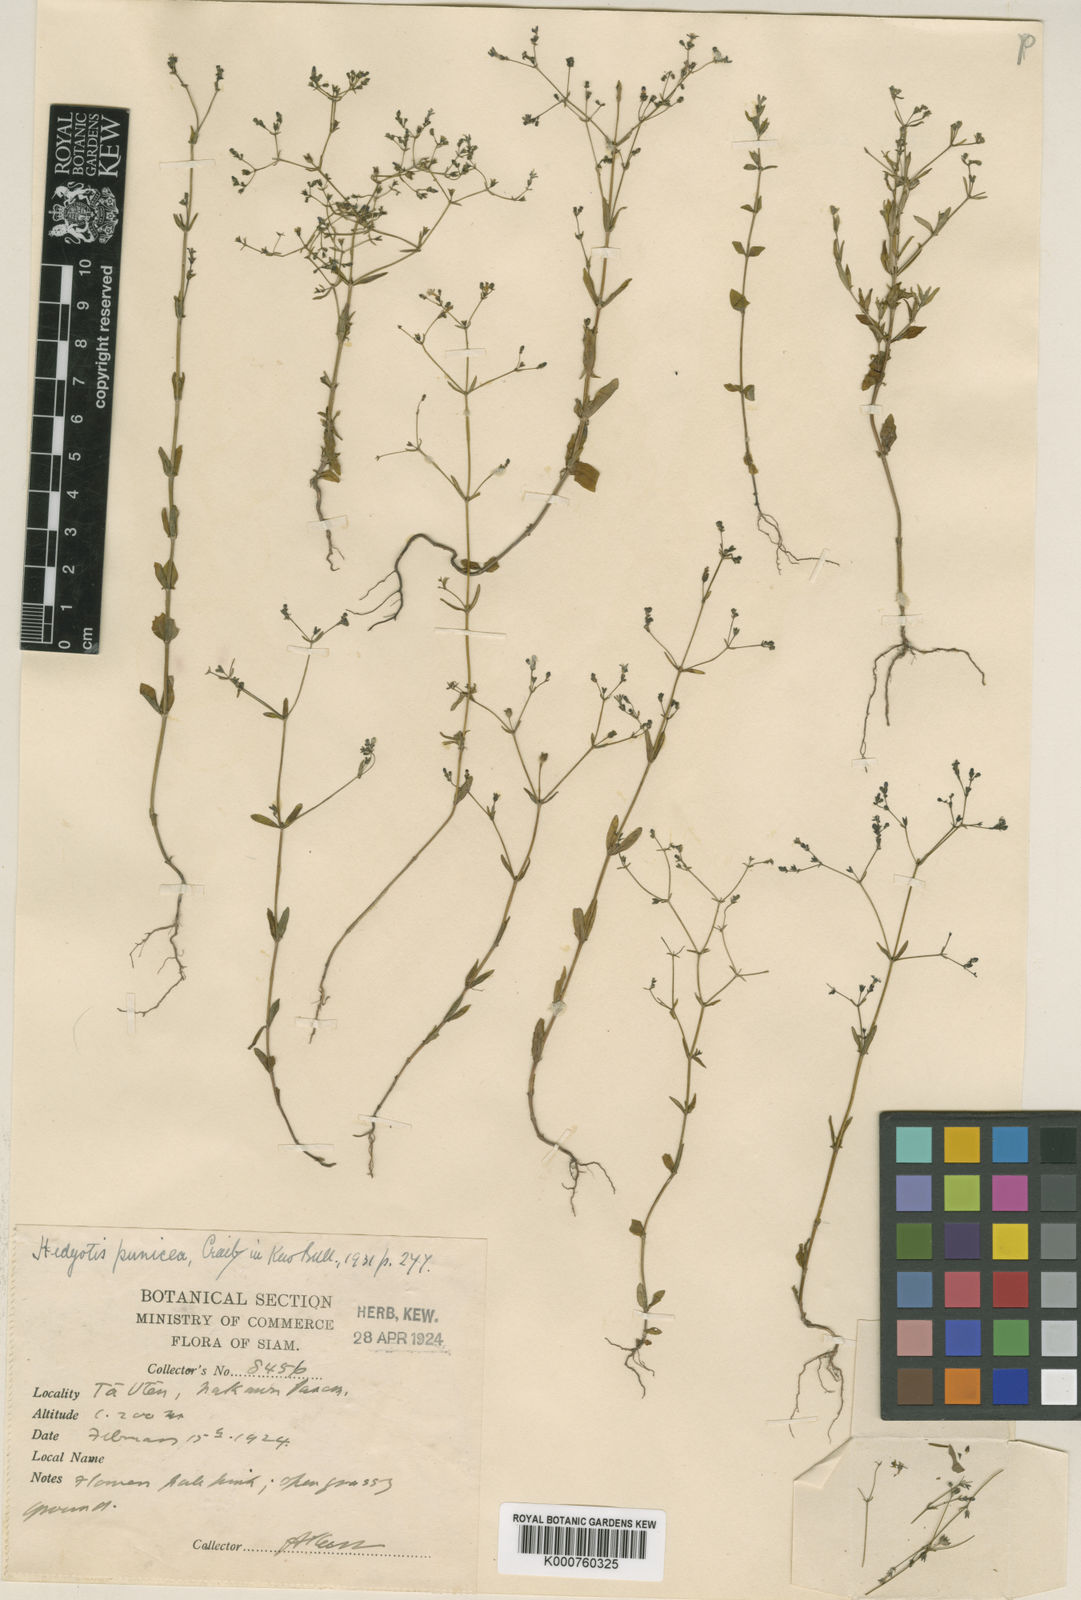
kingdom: Plantae
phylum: Tracheophyta
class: Magnoliopsida
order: Gentianales
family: Rubiaceae
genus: Hedyotis
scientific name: Hedyotis punicea
